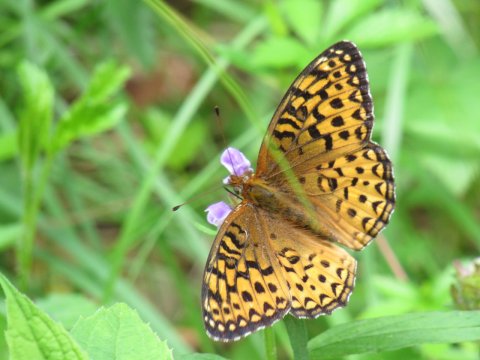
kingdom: Animalia
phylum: Arthropoda
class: Insecta
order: Lepidoptera
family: Nymphalidae
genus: Speyeria
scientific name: Speyeria atlantis
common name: Atlantis Fritillary
